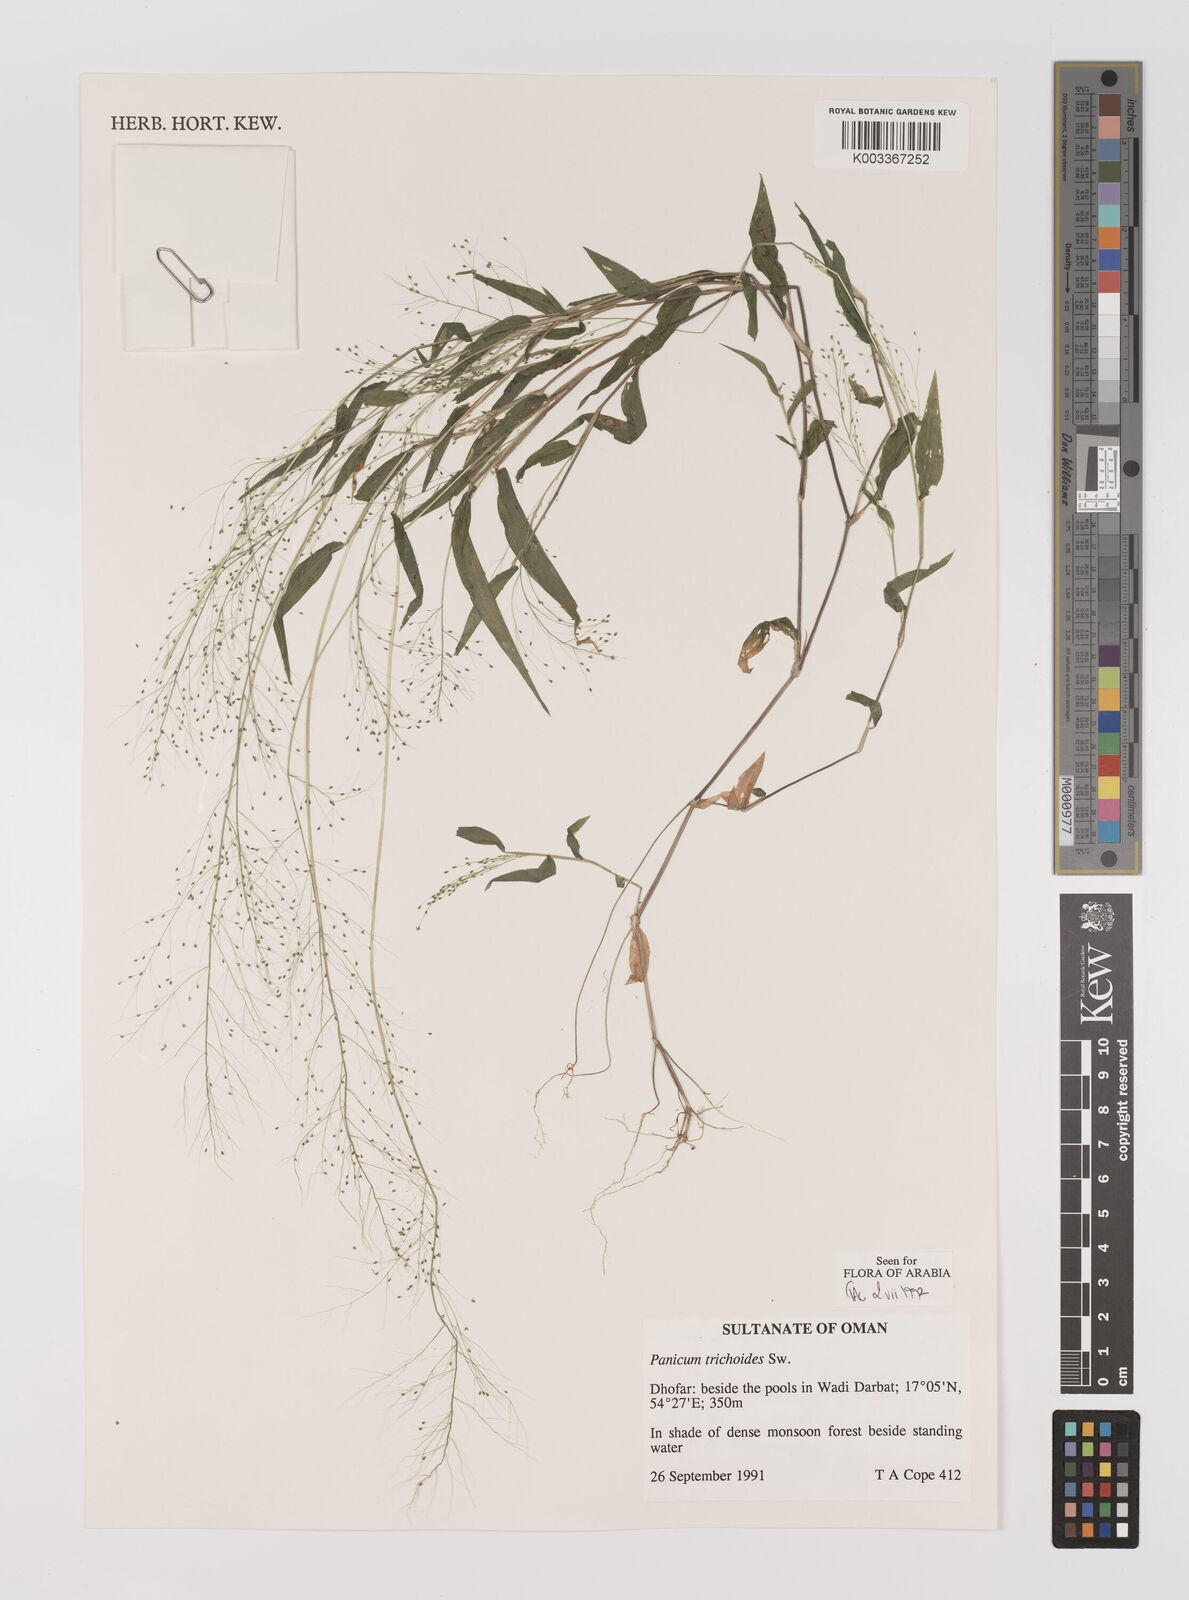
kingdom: Plantae
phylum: Tracheophyta
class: Liliopsida
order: Poales
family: Poaceae
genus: Panicum
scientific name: Panicum trichoides
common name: Tickle grass
